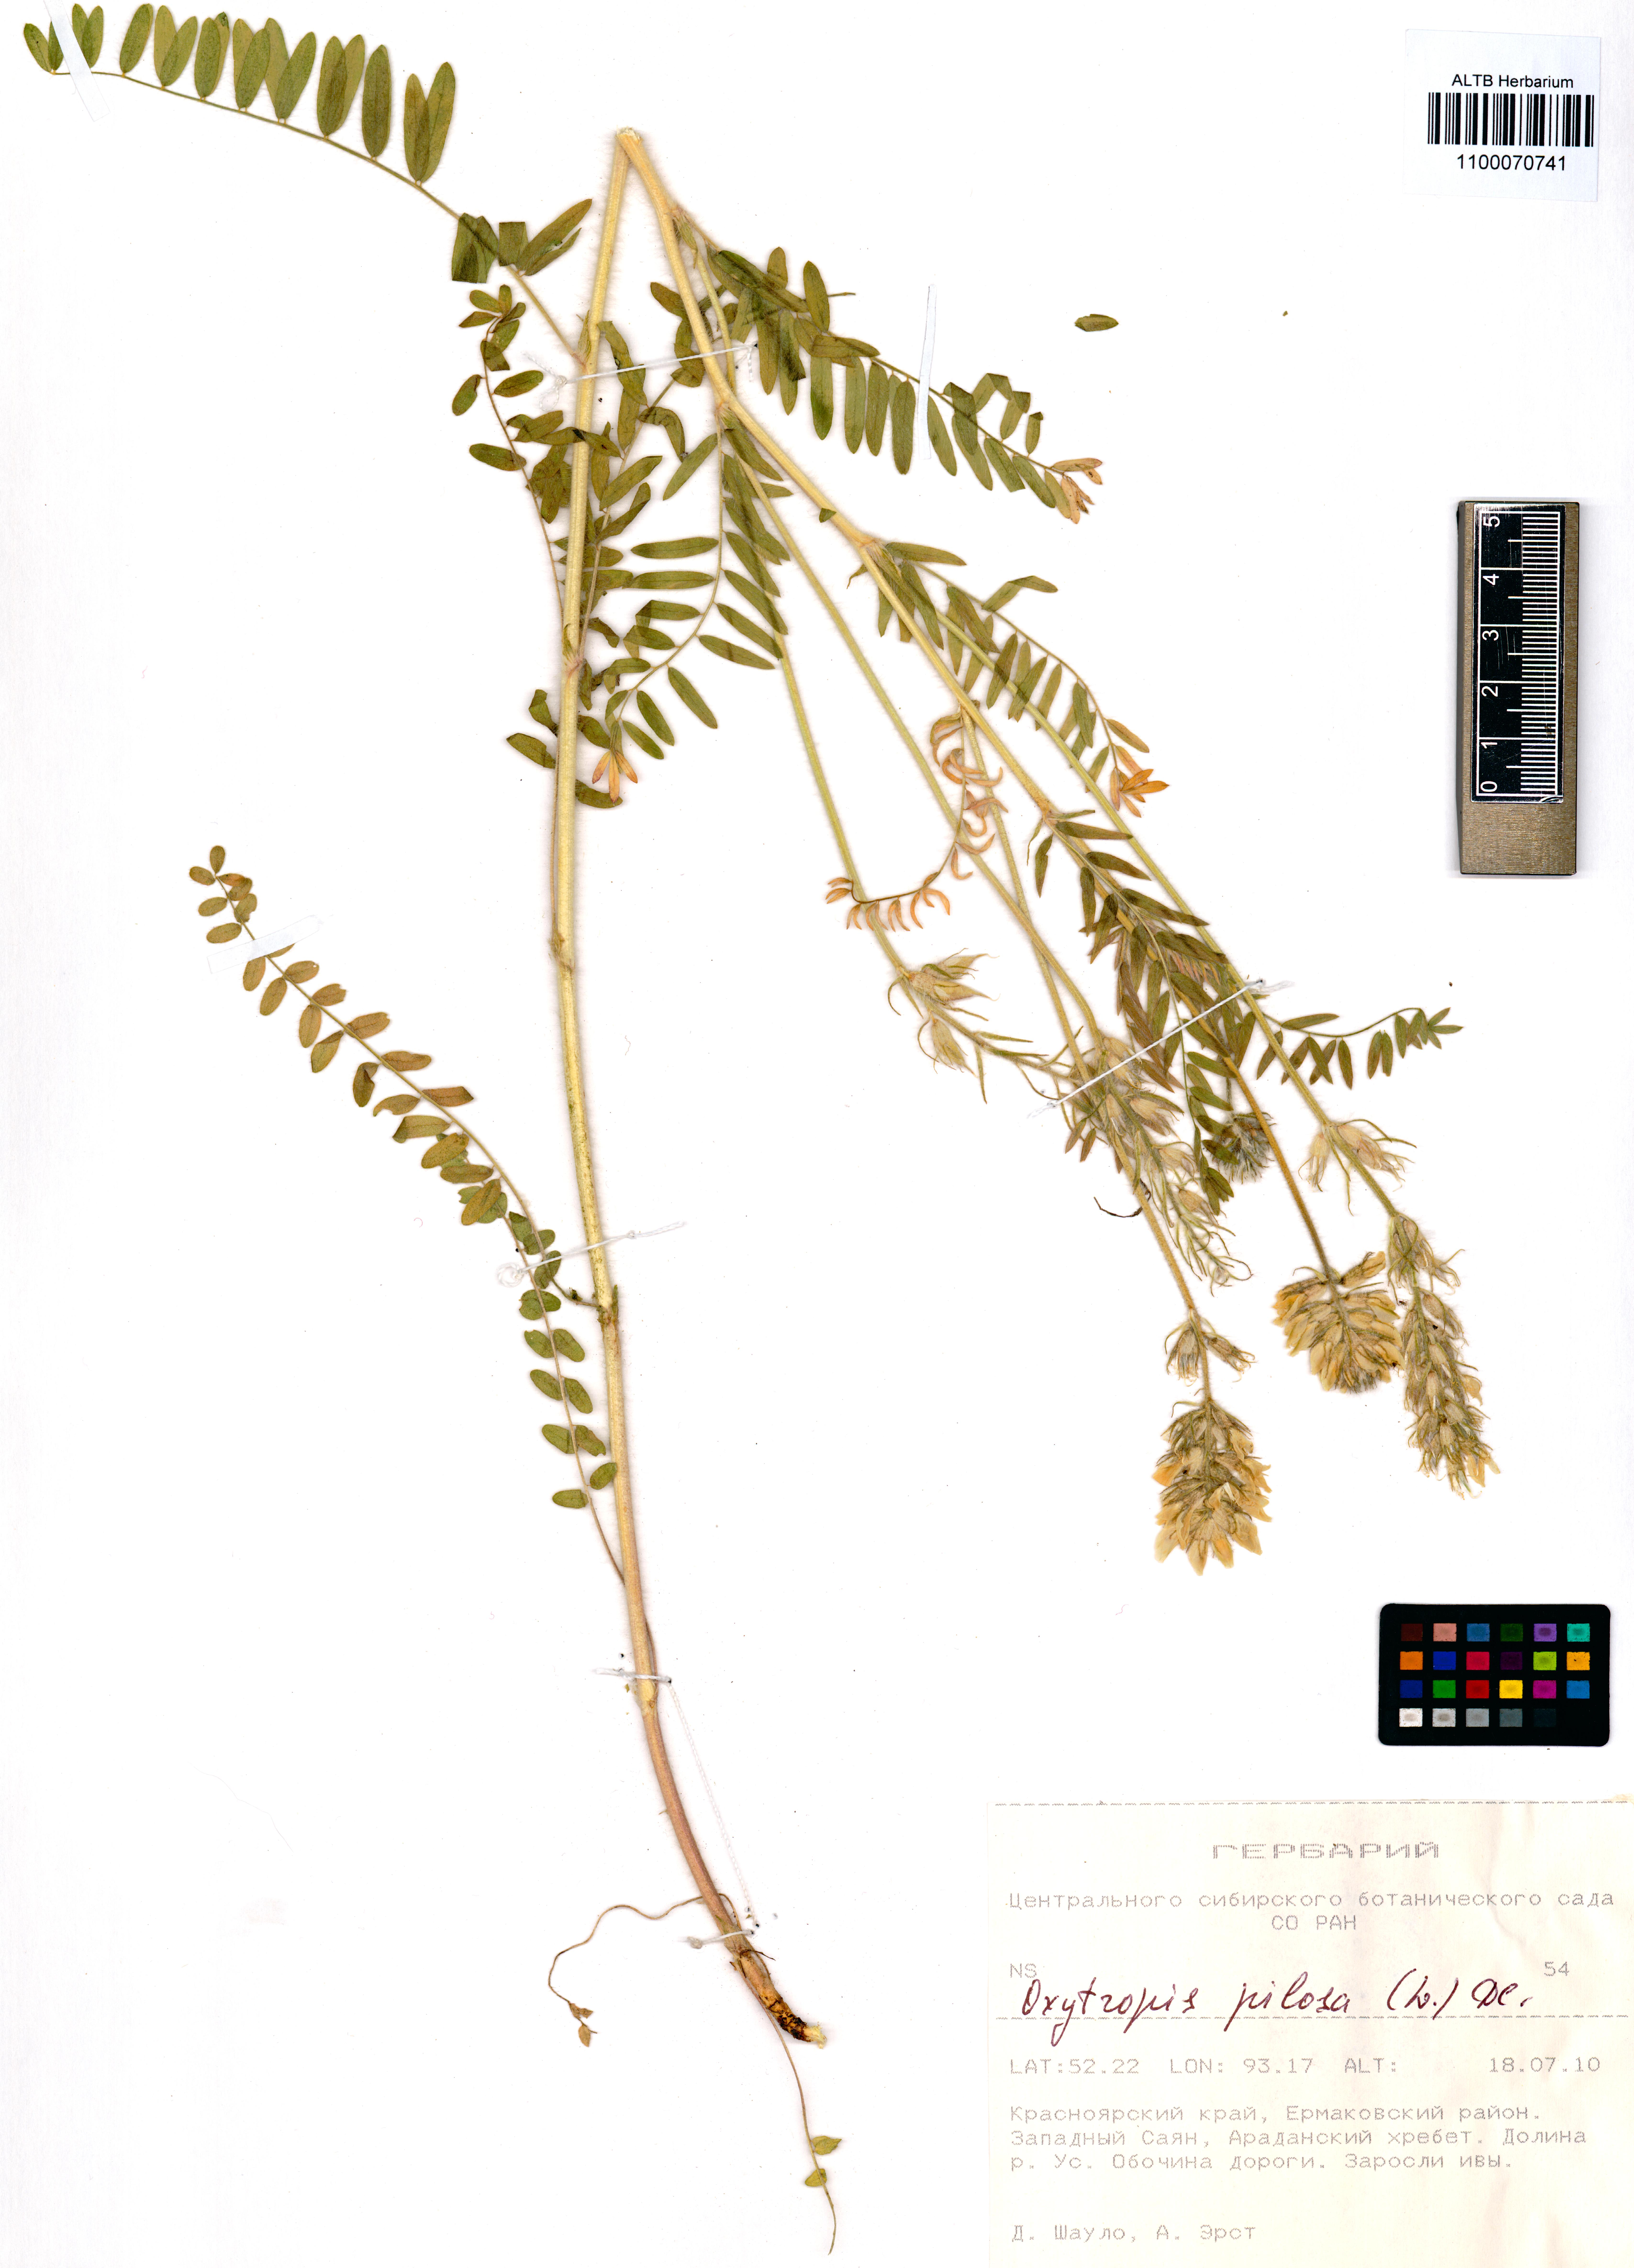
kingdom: Plantae
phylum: Tracheophyta
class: Magnoliopsida
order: Fabales
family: Fabaceae
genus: Oxytropis
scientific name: Oxytropis pilosa
